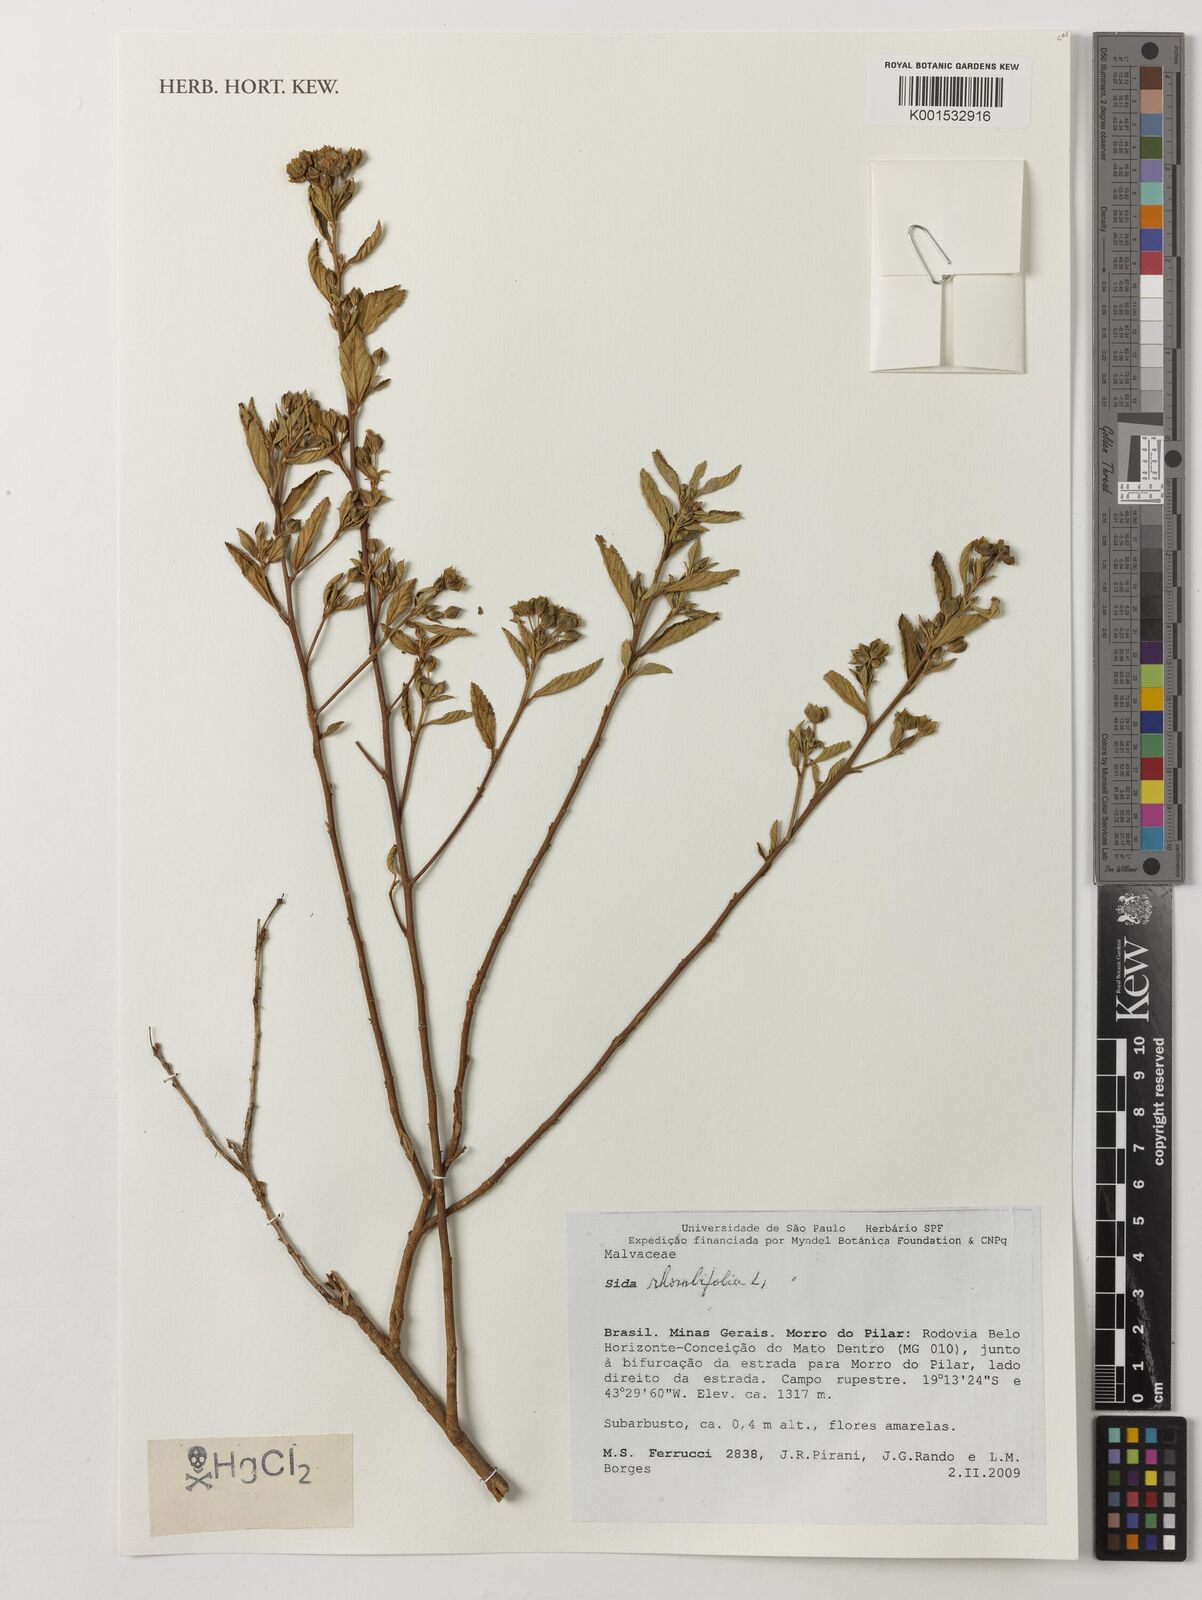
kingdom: Plantae
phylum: Tracheophyta
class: Magnoliopsida
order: Malvales
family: Malvaceae
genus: Sida
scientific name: Sida rhombifolia
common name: Queensland-hemp
